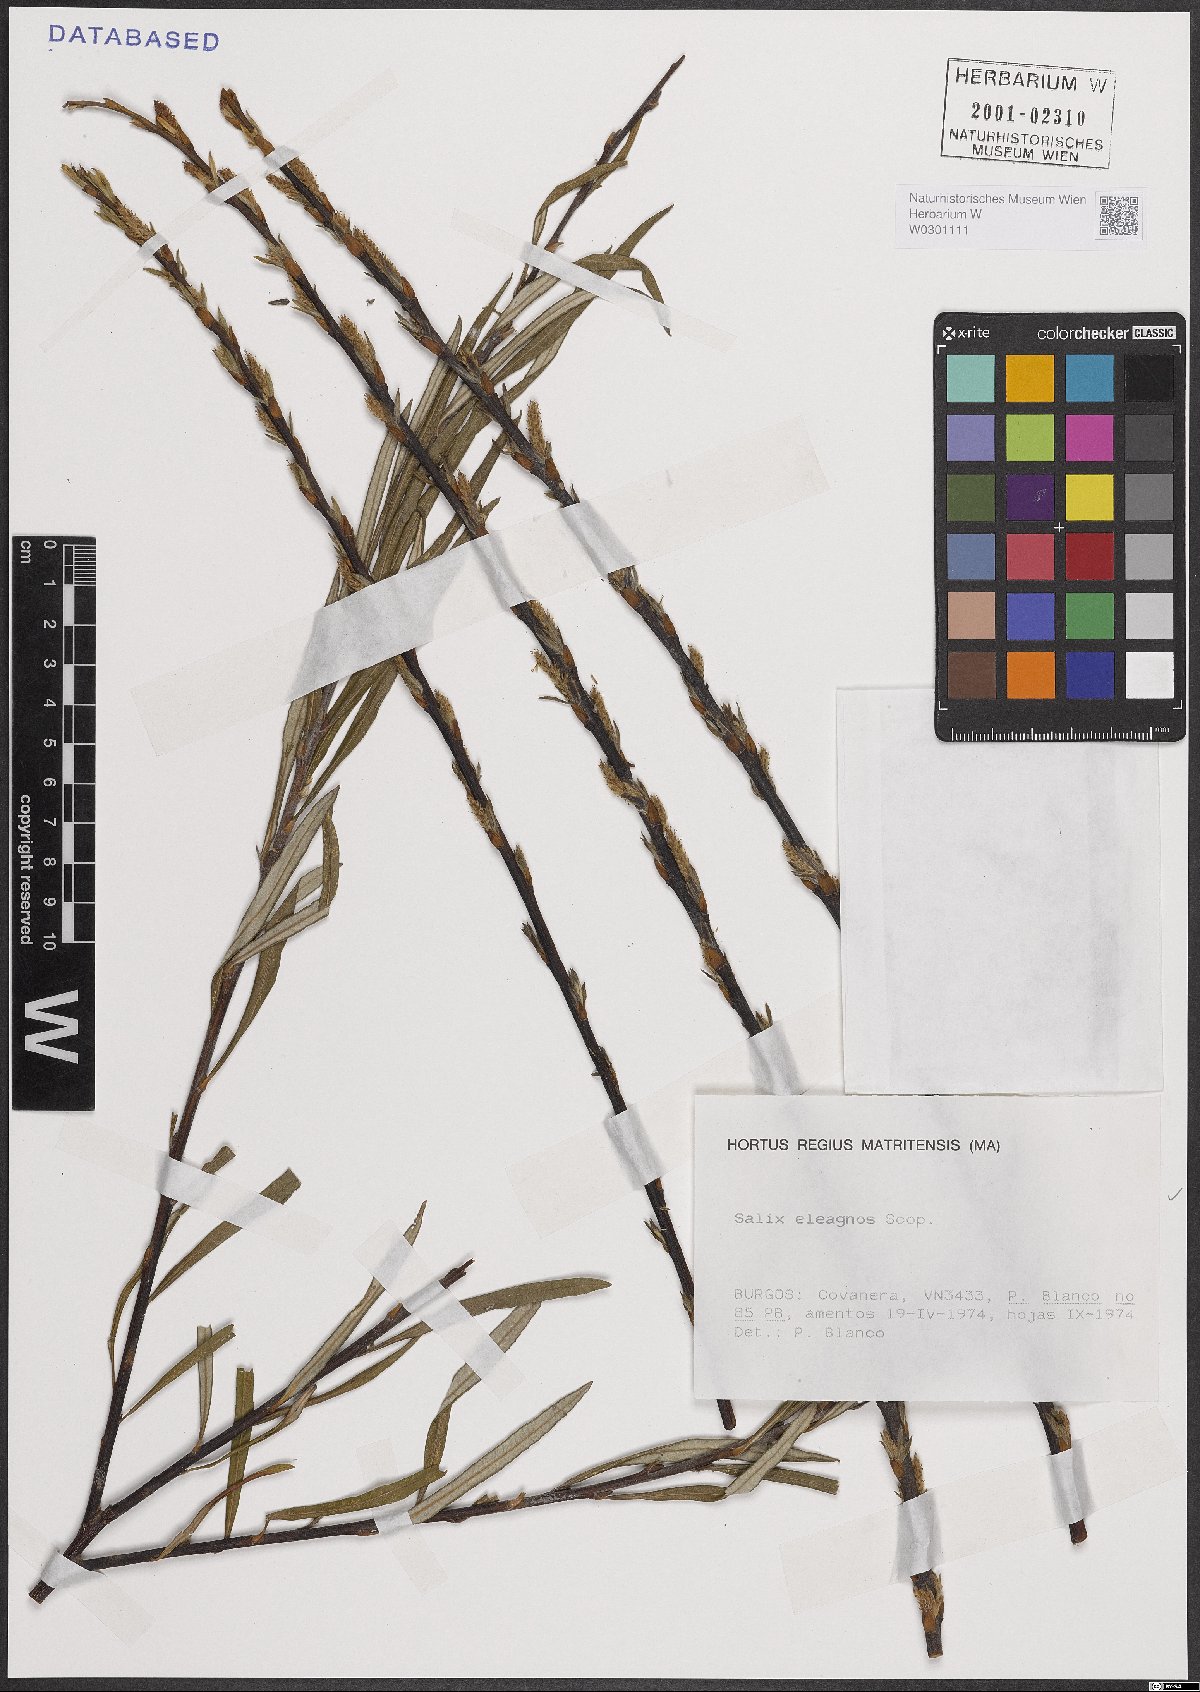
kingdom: Plantae
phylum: Tracheophyta
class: Magnoliopsida
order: Malpighiales
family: Salicaceae
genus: Salix
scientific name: Salix eleagnos
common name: Elaeagnus willow
